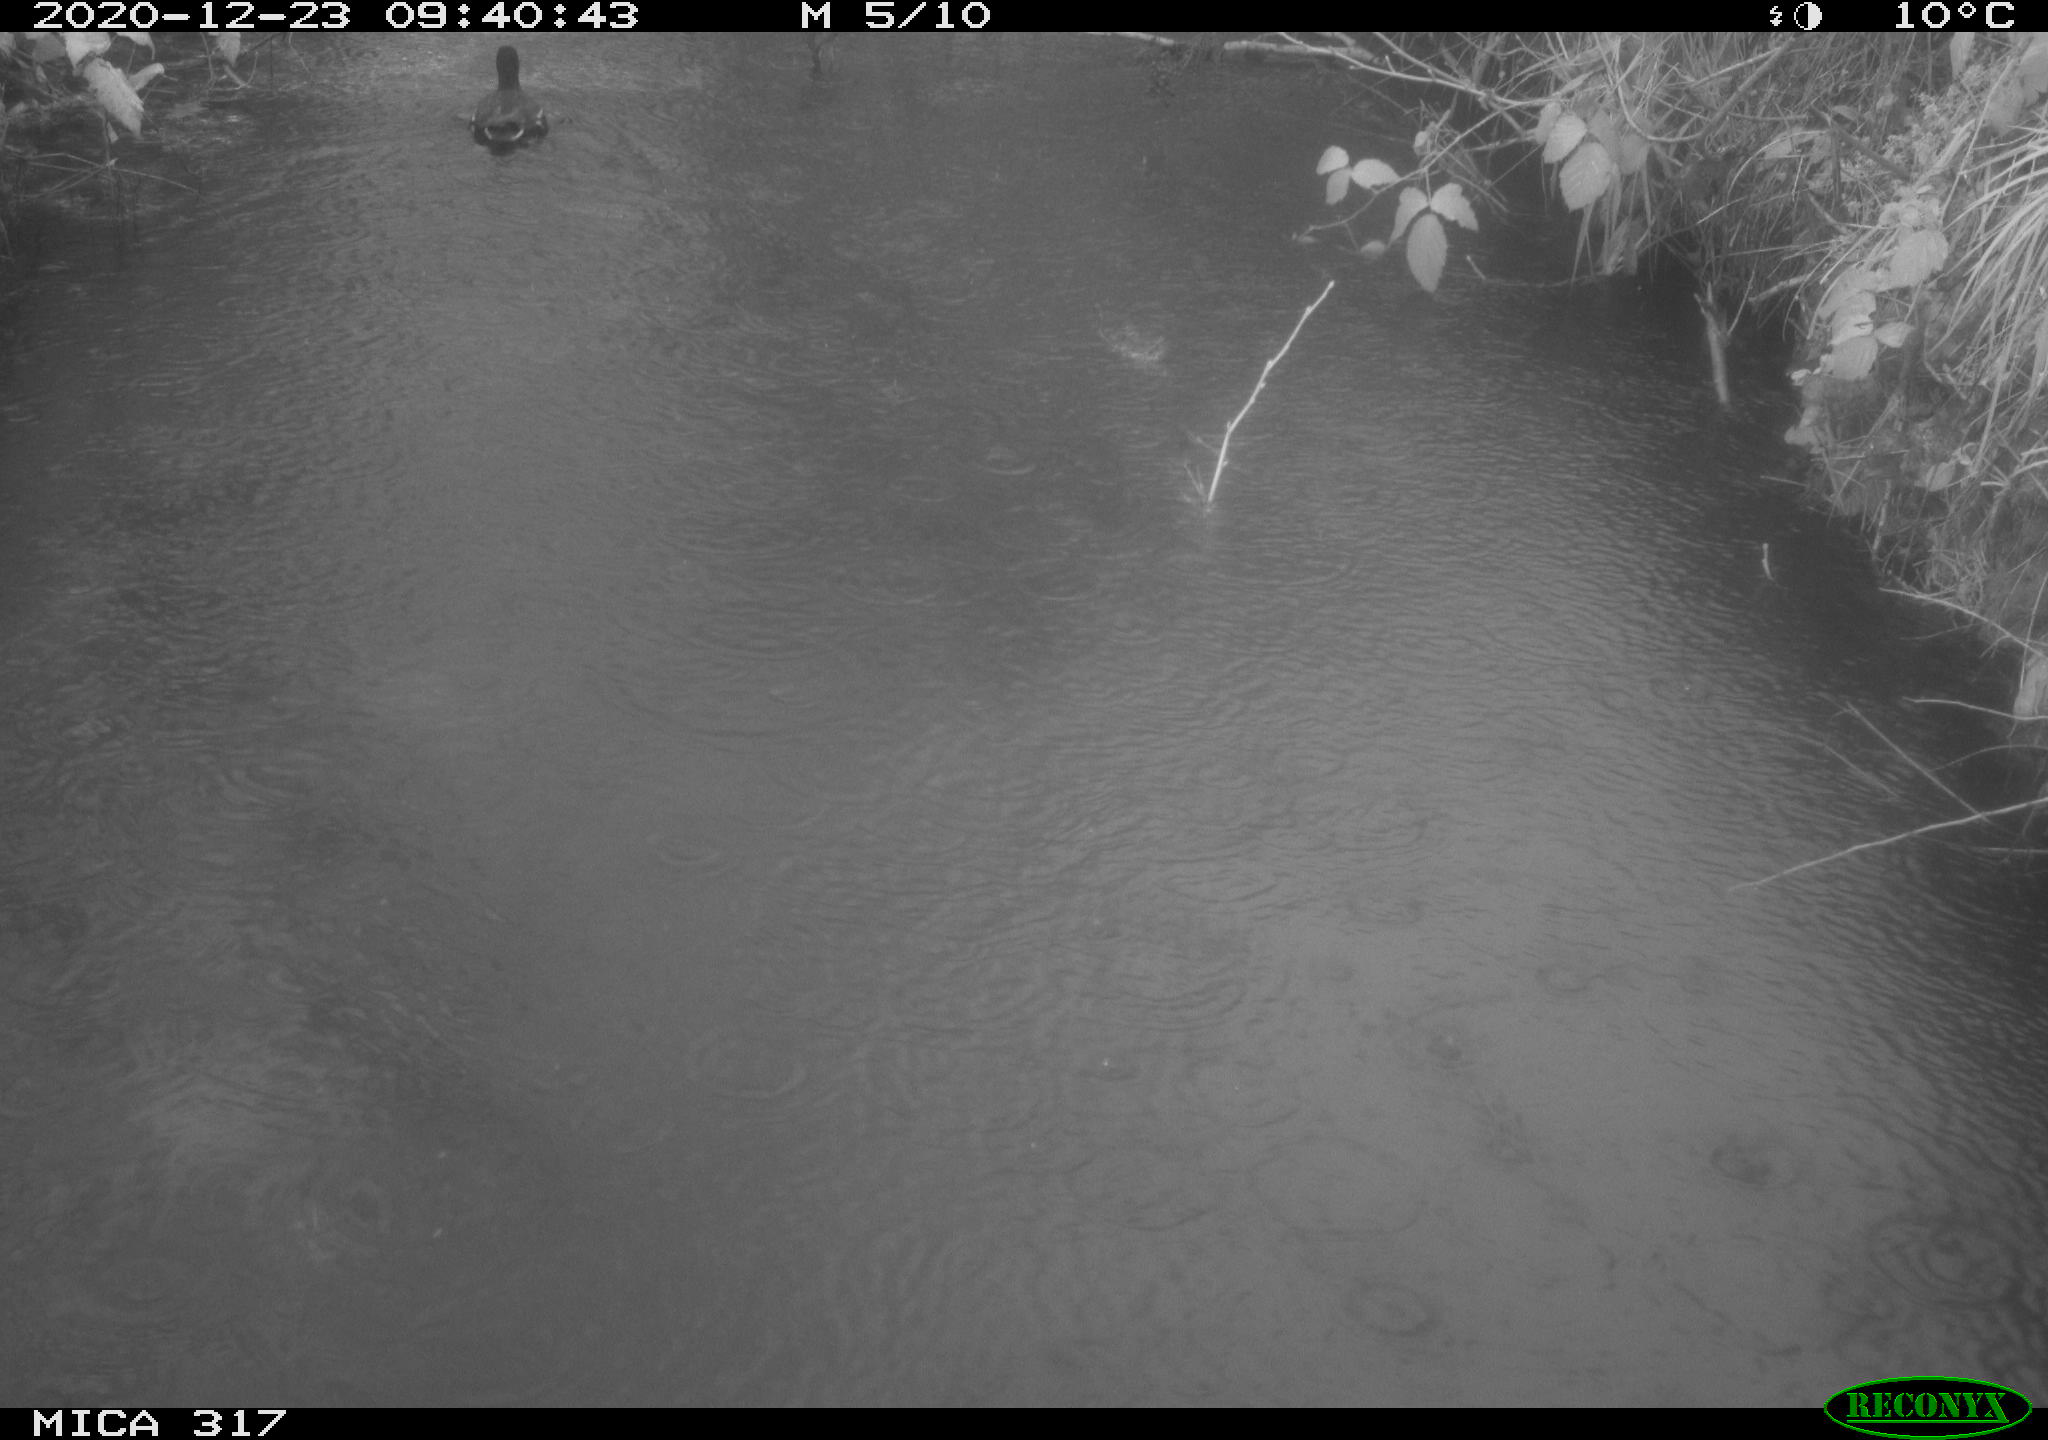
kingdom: Animalia
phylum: Chordata
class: Aves
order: Gruiformes
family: Rallidae
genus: Gallinula
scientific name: Gallinula chloropus
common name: Common moorhen
